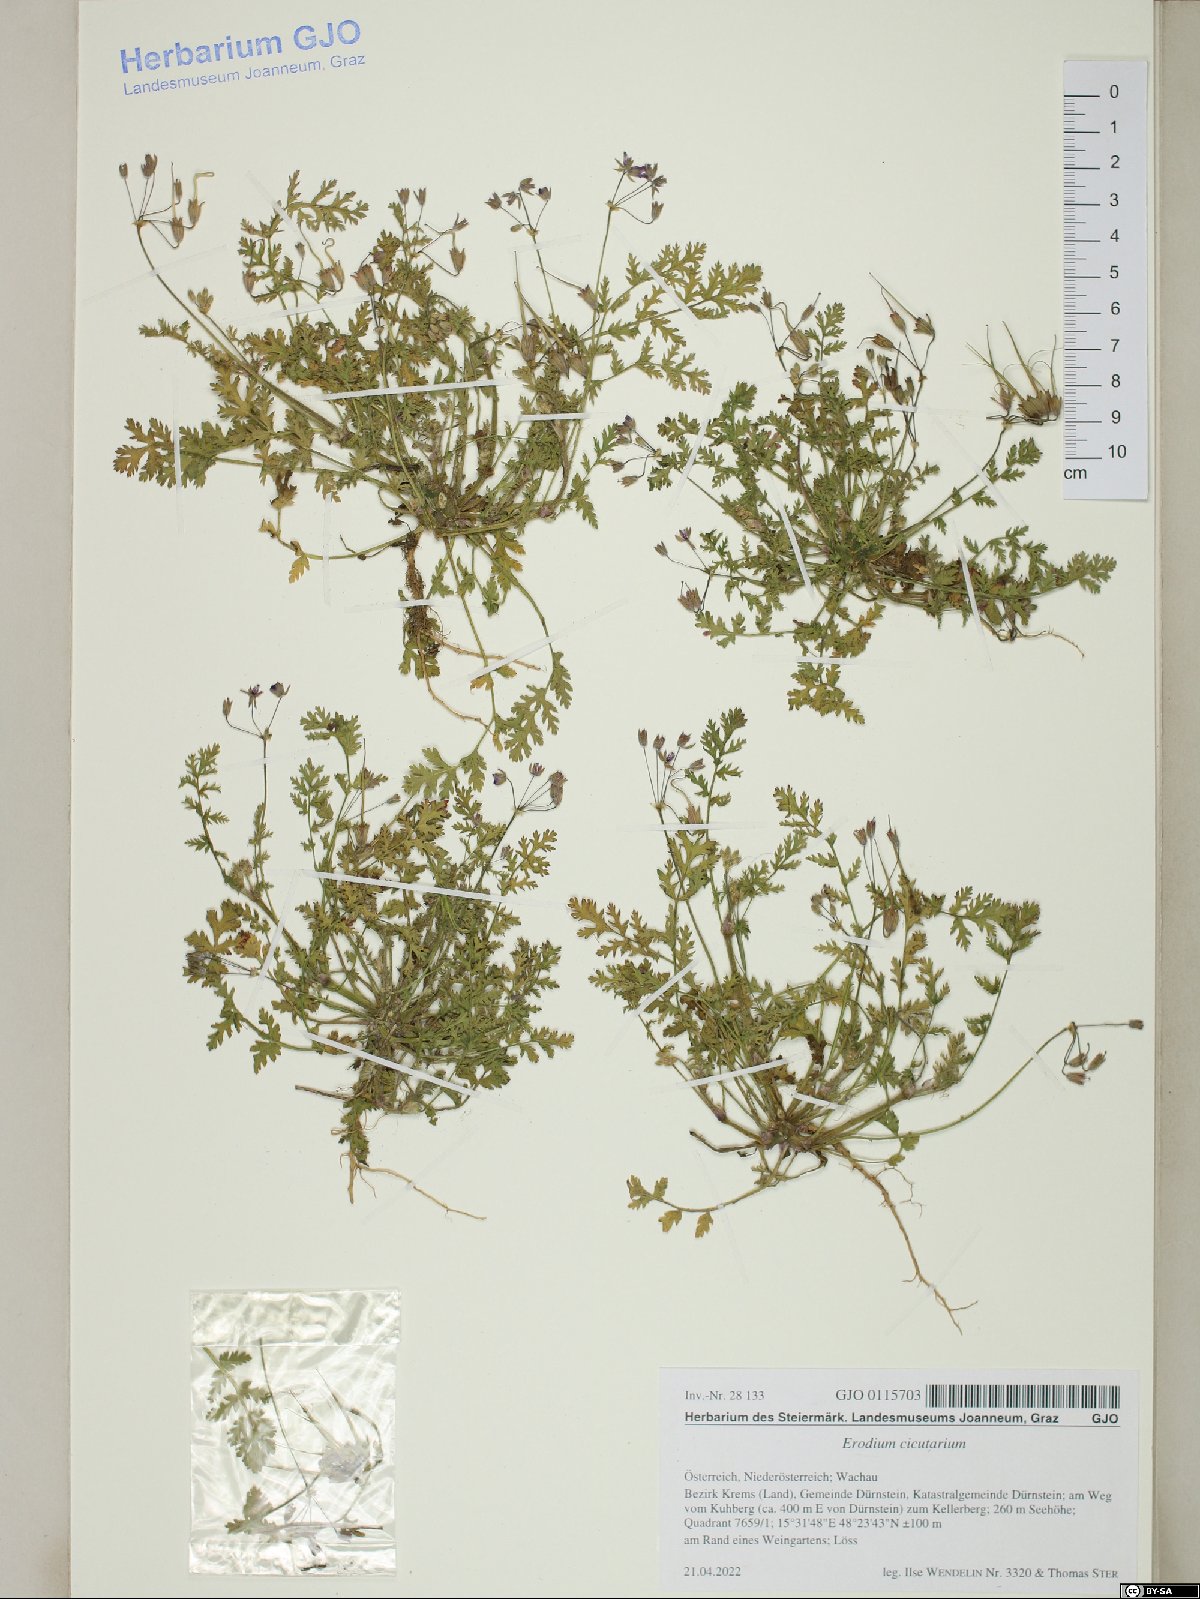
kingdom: Plantae
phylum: Tracheophyta
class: Magnoliopsida
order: Geraniales
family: Geraniaceae
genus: Erodium
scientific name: Erodium cicutarium
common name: Common stork's-bill
